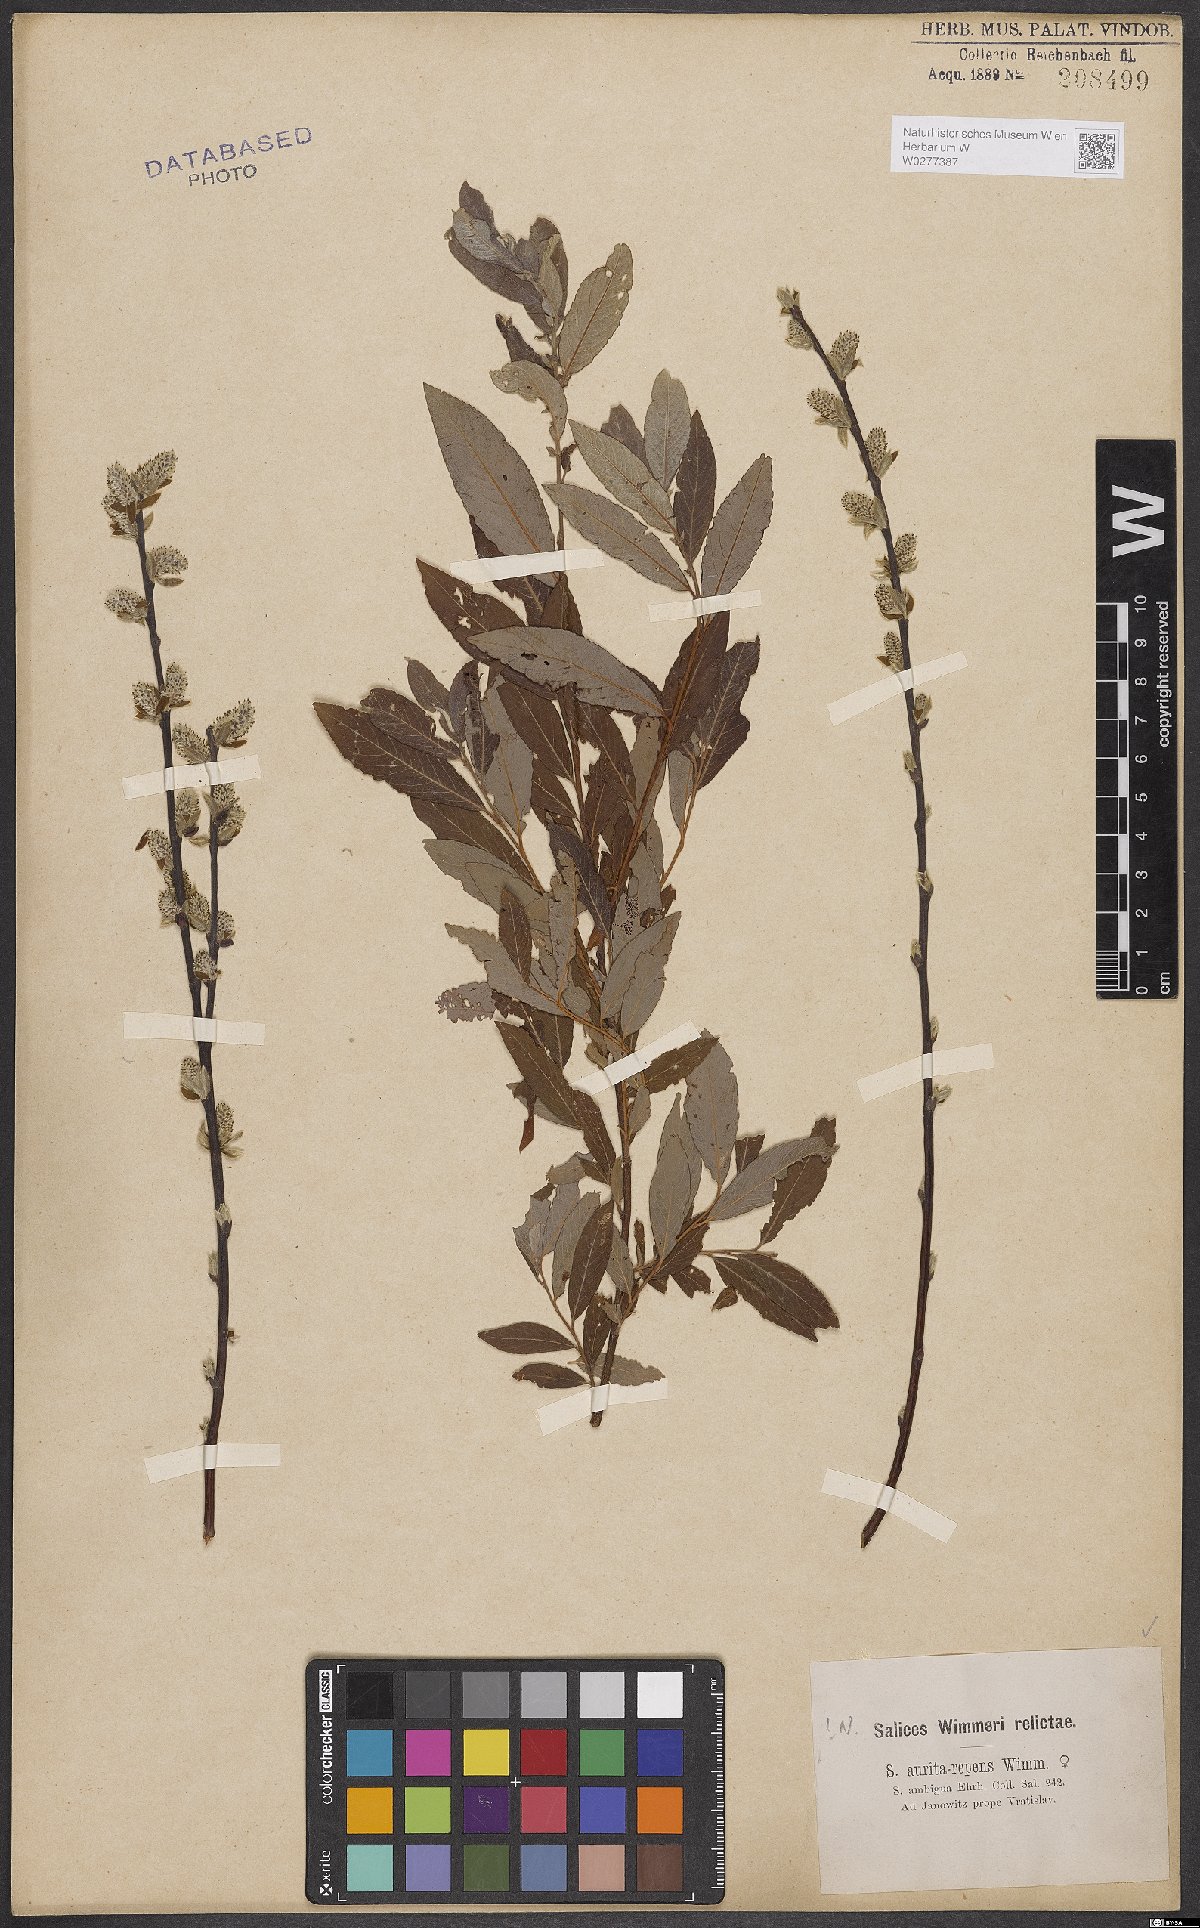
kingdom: Plantae
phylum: Tracheophyta
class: Magnoliopsida
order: Malpighiales
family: Salicaceae
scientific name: Salicaceae
